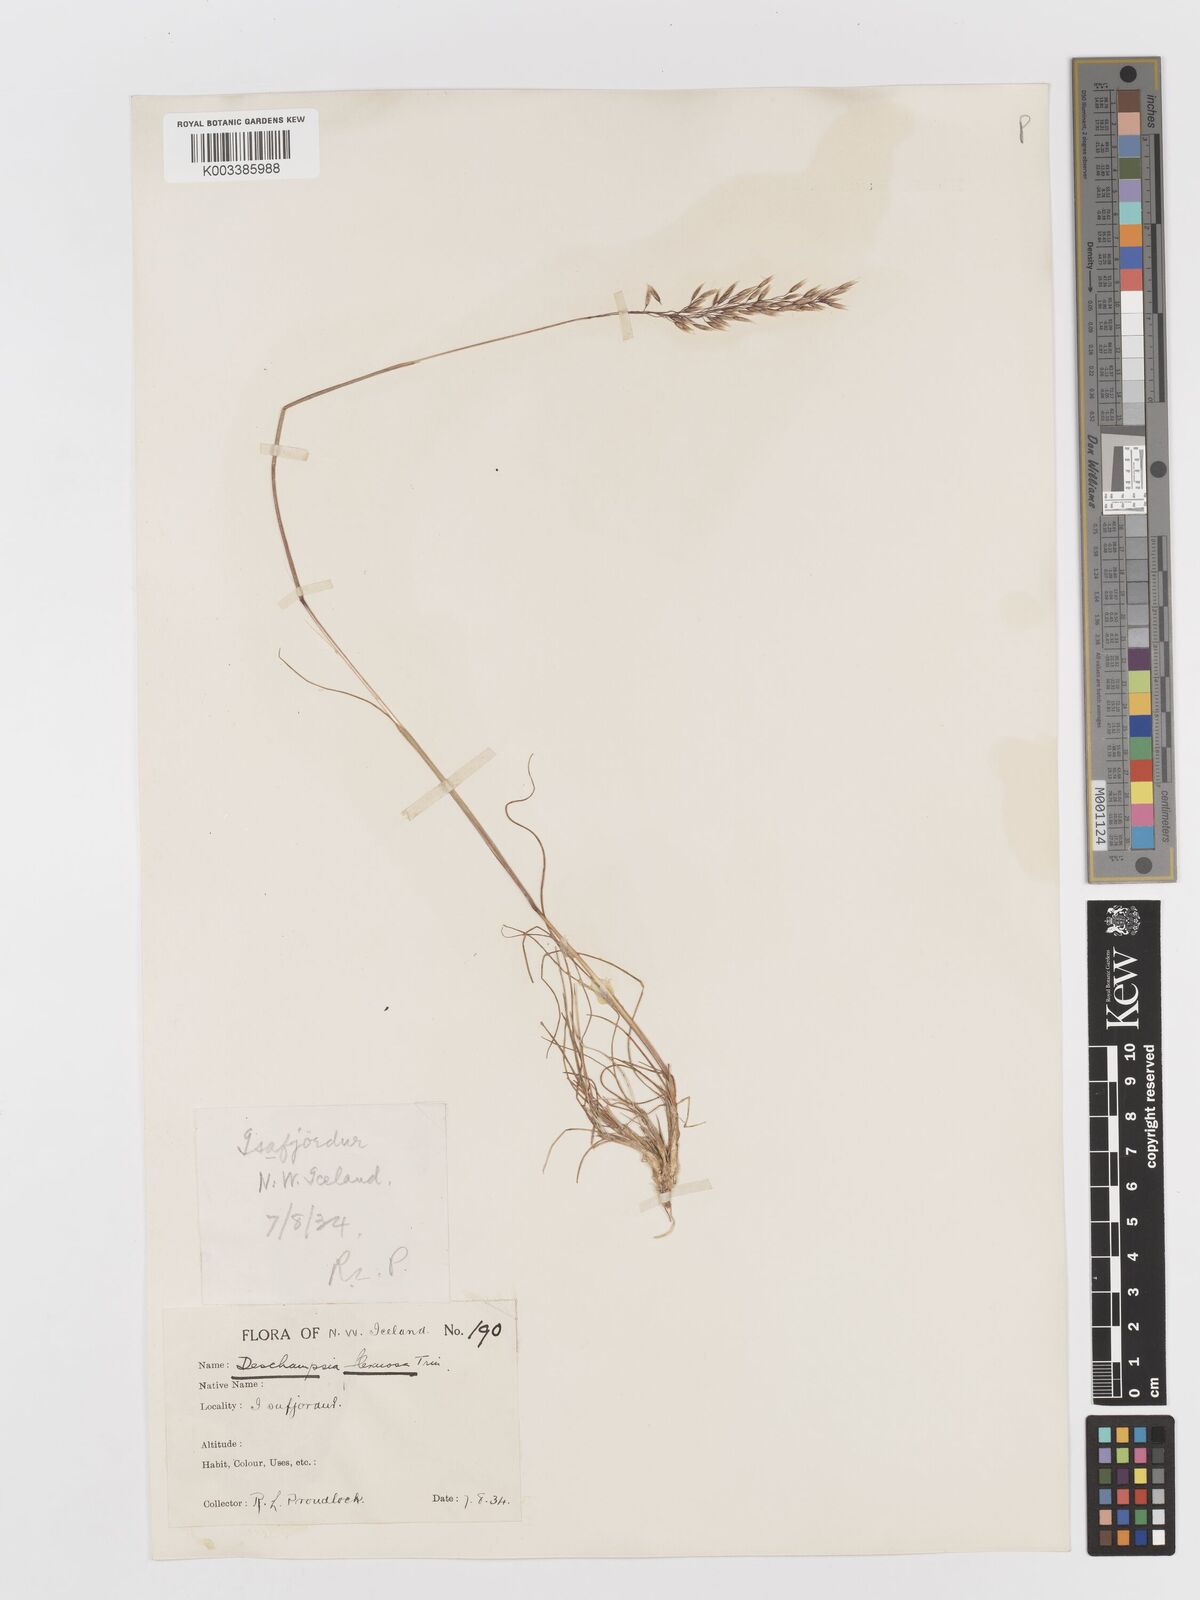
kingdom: Plantae
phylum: Tracheophyta
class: Liliopsida
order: Poales
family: Poaceae
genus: Avenella
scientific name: Avenella flexuosa
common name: Wavy hairgrass
